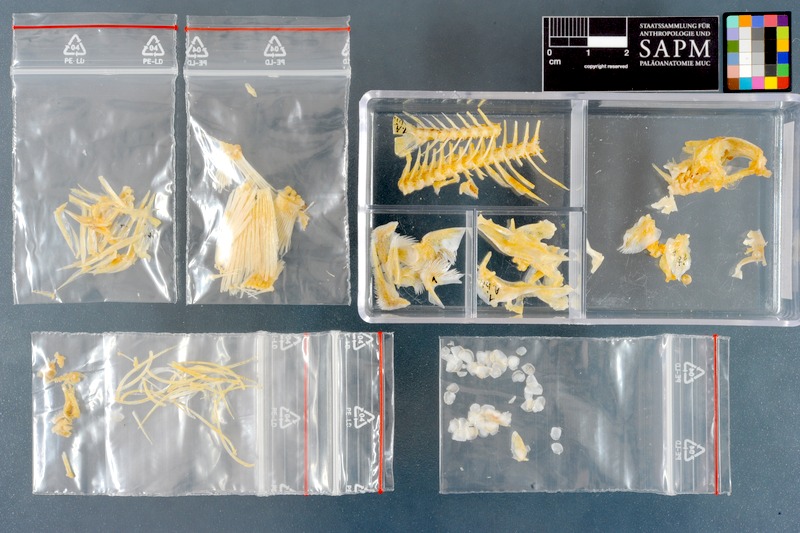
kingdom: Animalia
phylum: Chordata
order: Perciformes
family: Pomacentridae
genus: Amphiprion
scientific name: Amphiprion bicinctus
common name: Two-banded anemonefish
